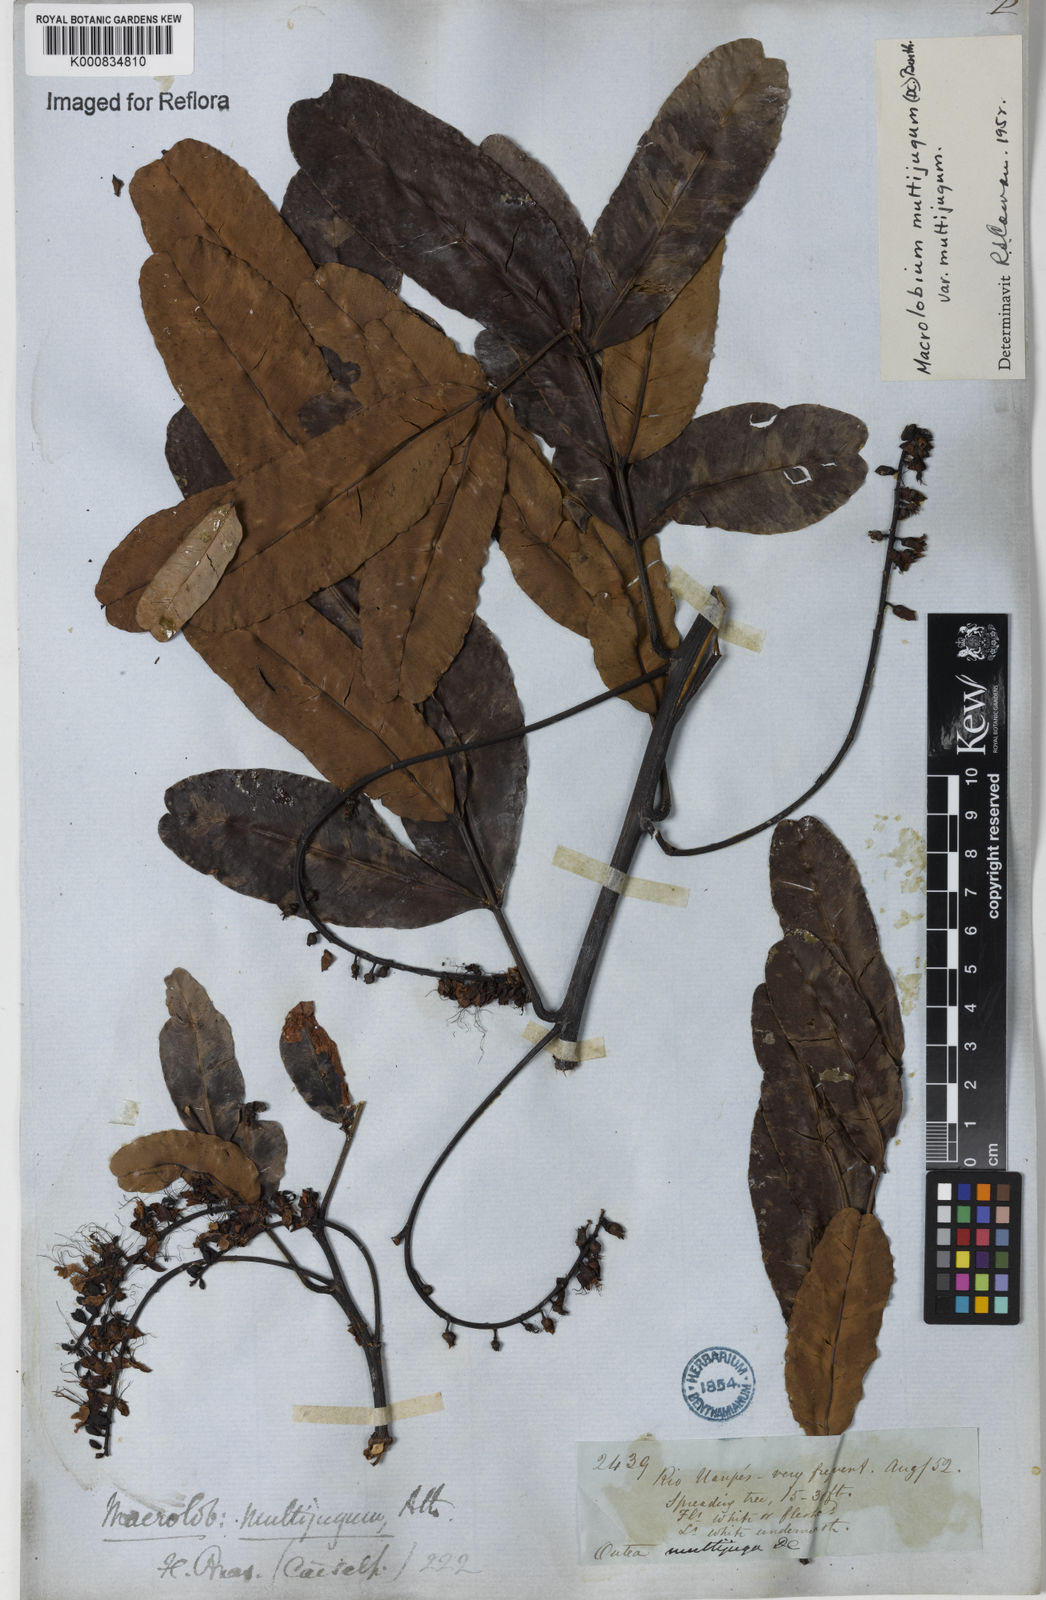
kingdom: Plantae
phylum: Tracheophyta
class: Magnoliopsida
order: Fabales
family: Fabaceae
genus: Macrolobium
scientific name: Macrolobium multijugum
